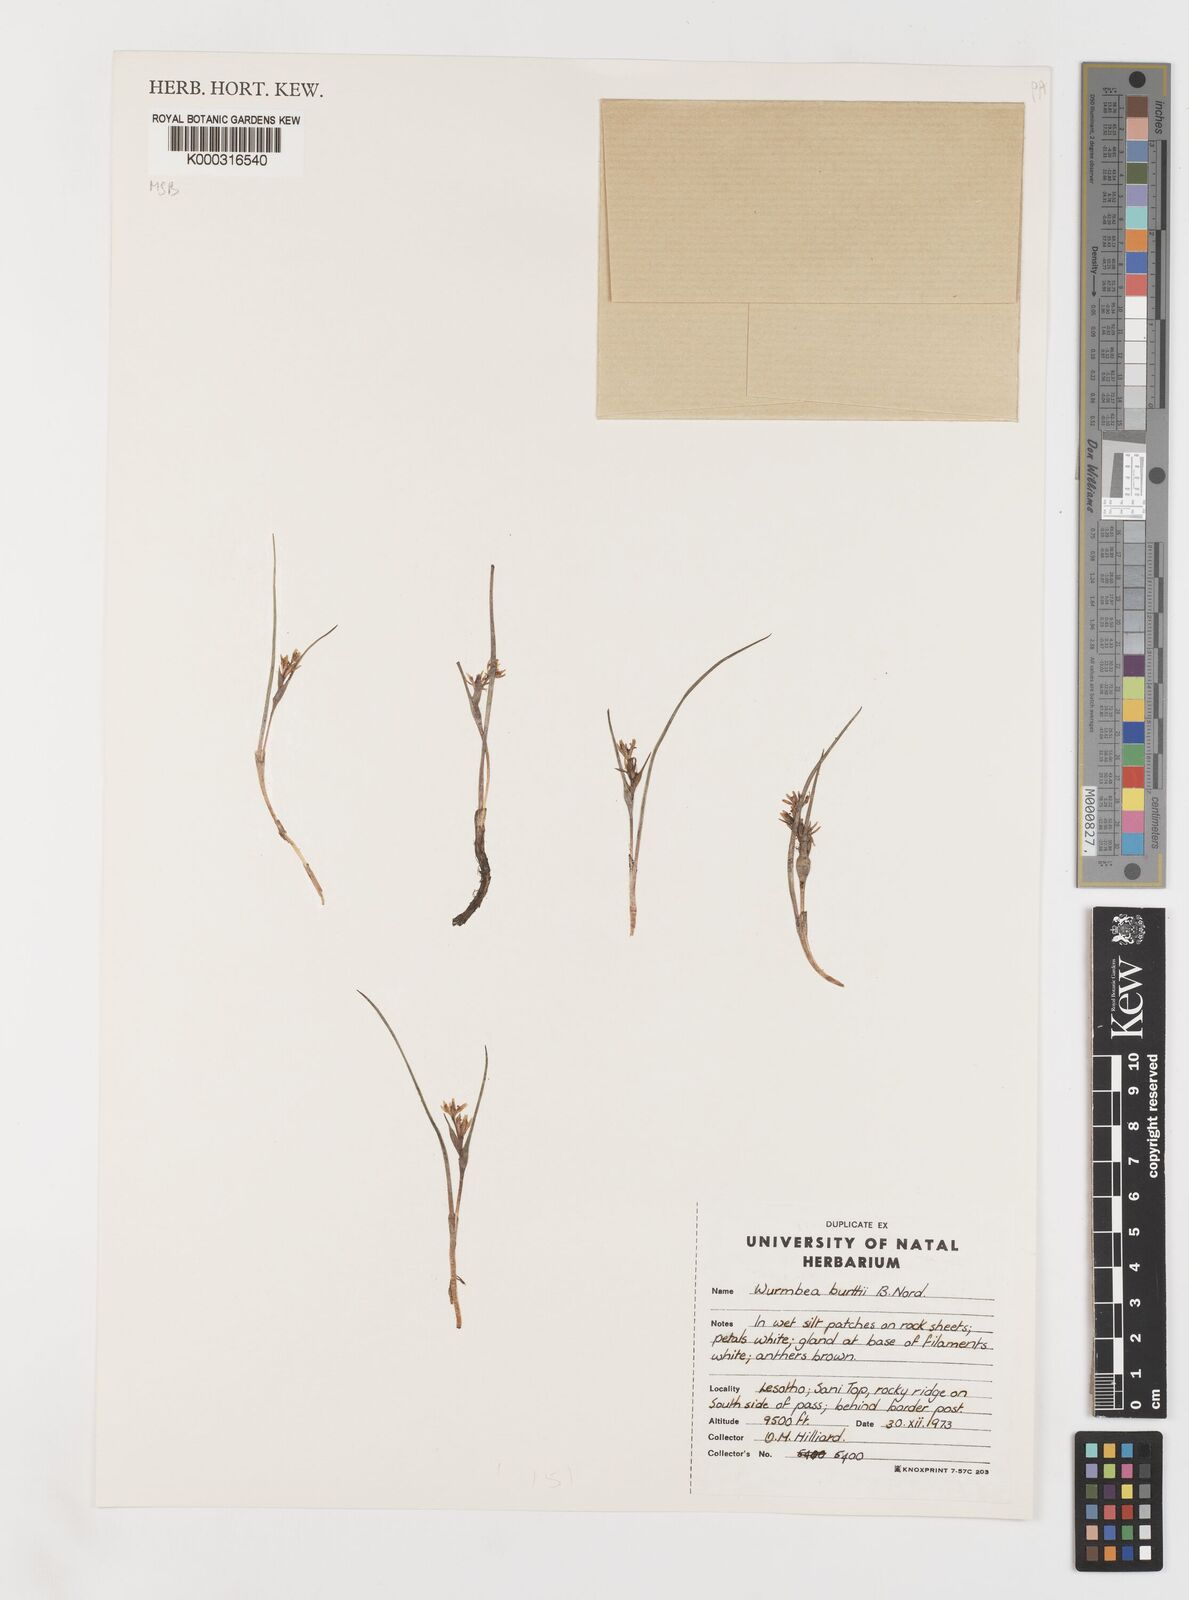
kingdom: Plantae
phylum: Tracheophyta
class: Liliopsida
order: Liliales
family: Colchicaceae
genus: Wurmbea
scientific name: Wurmbea burttii
